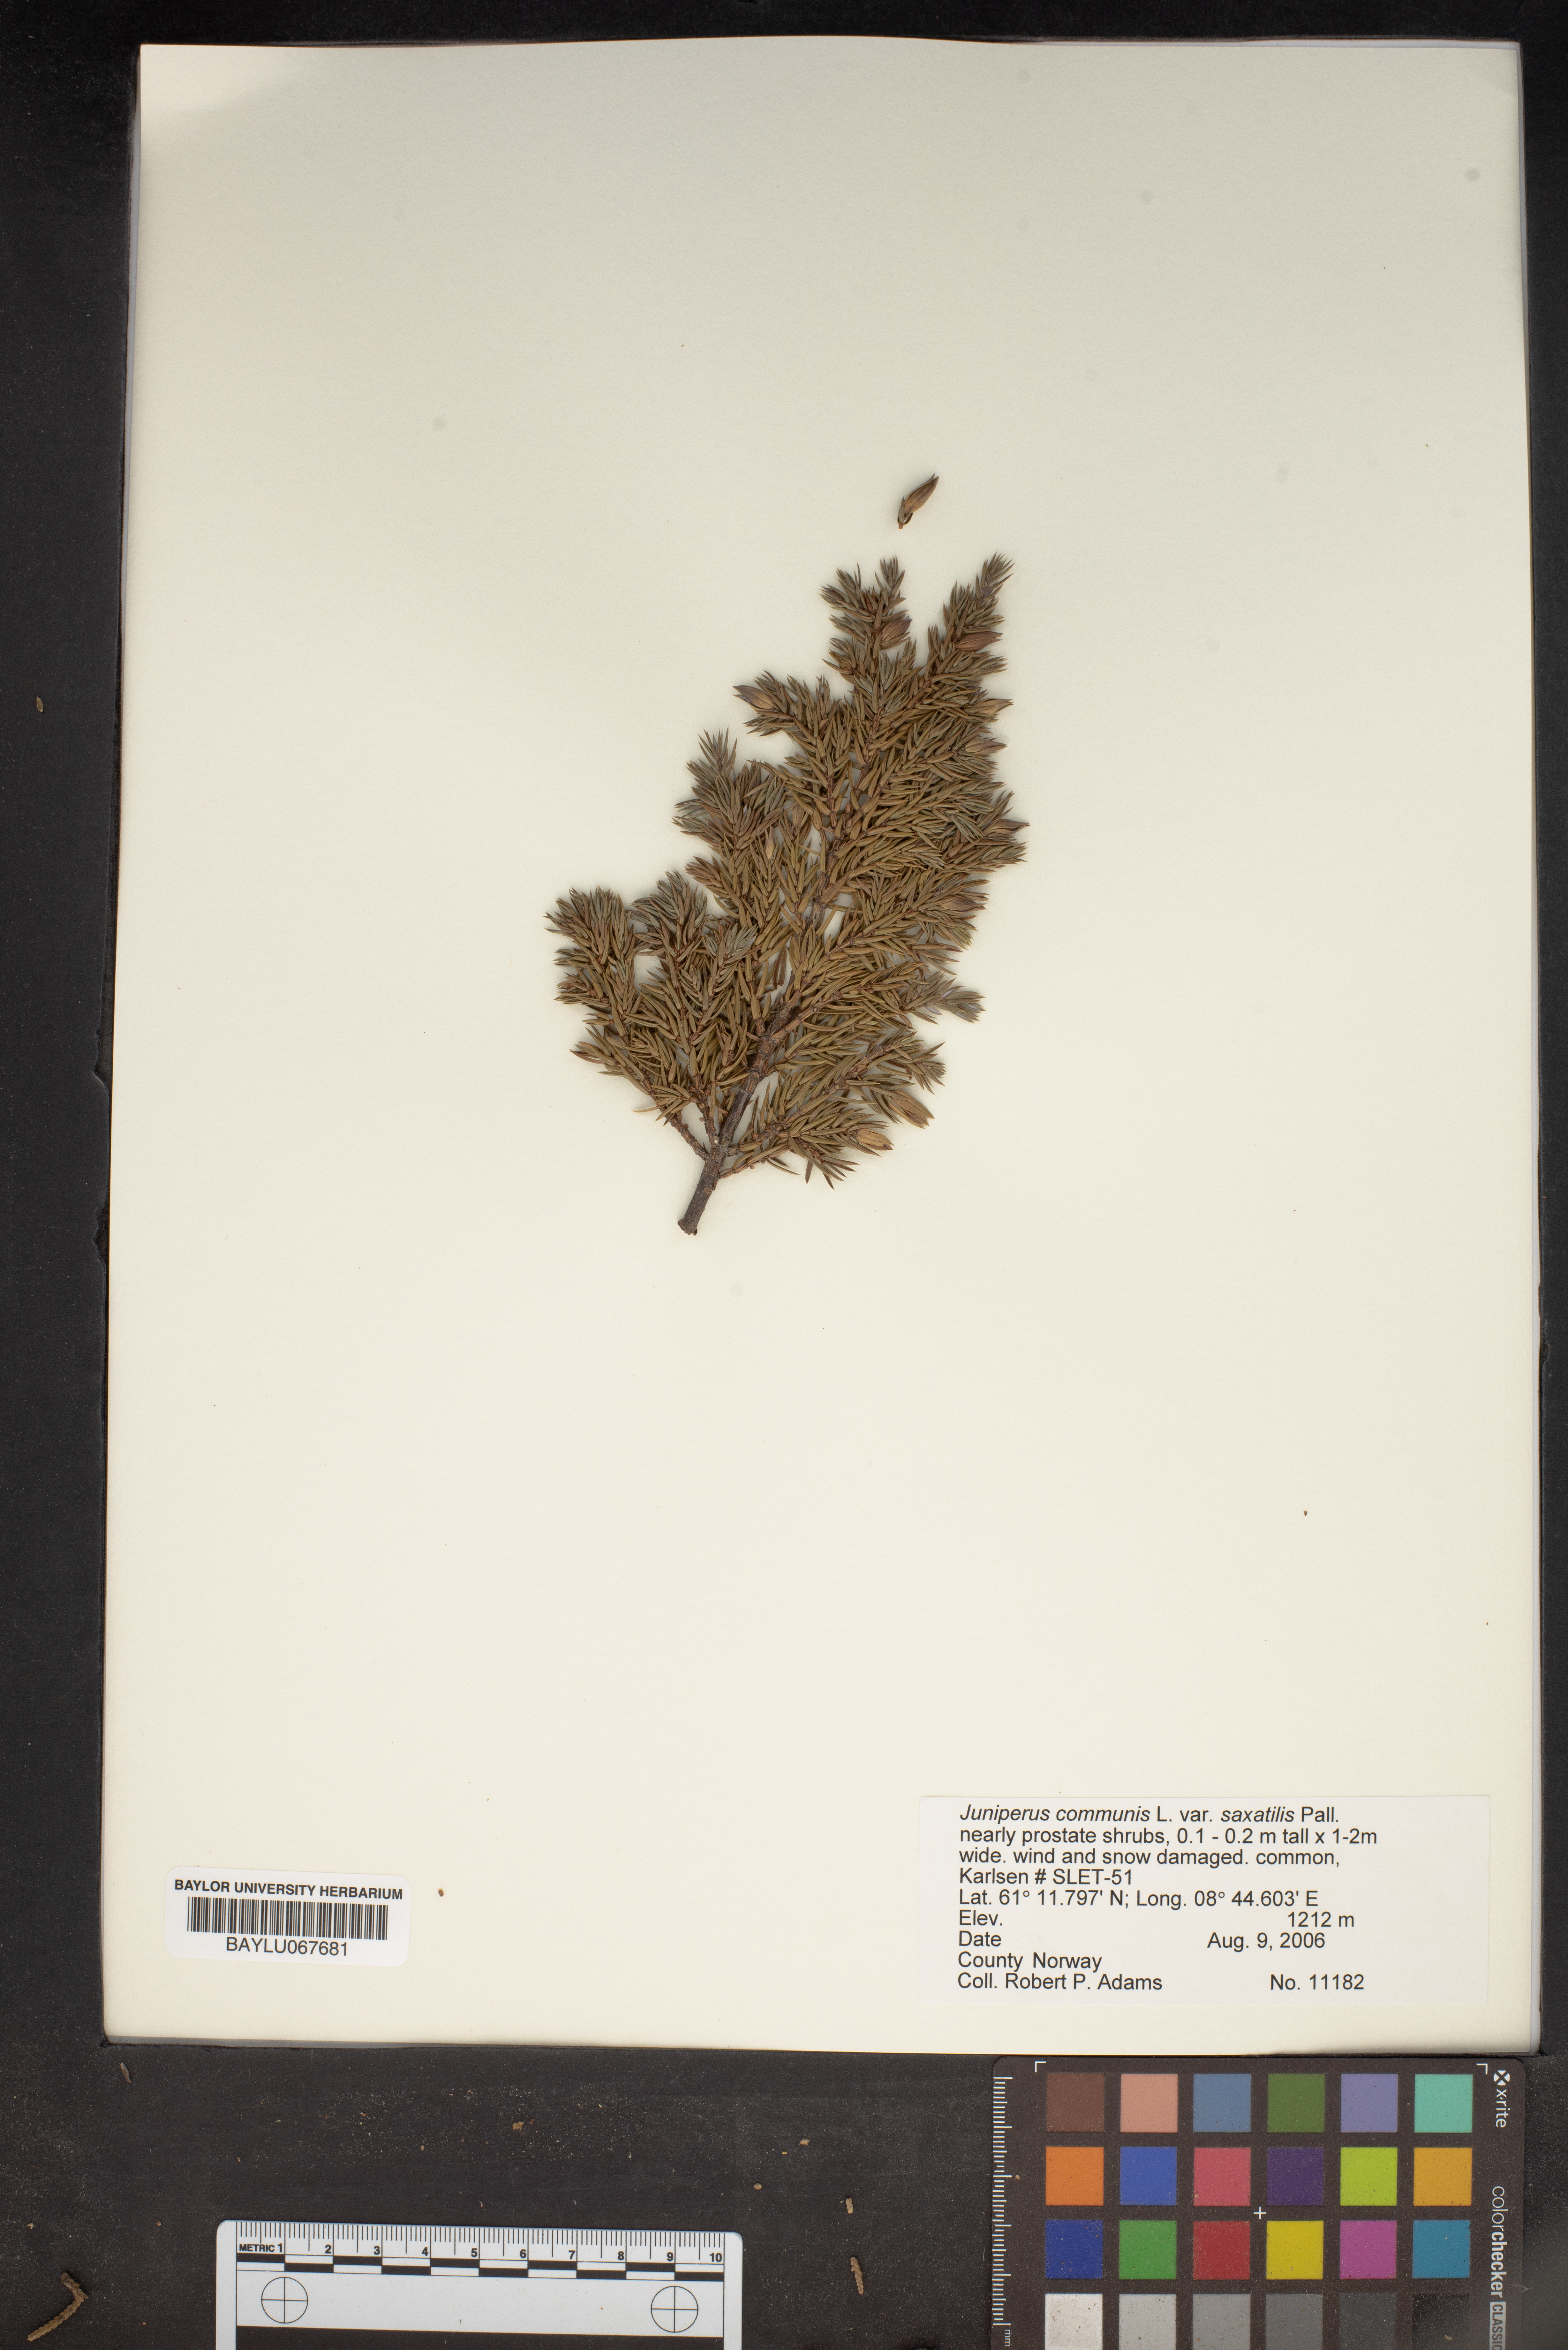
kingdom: Plantae
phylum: Tracheophyta
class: Pinopsida
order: Pinales
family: Cupressaceae
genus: Juniperus
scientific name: Juniperus communis
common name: Common juniper
